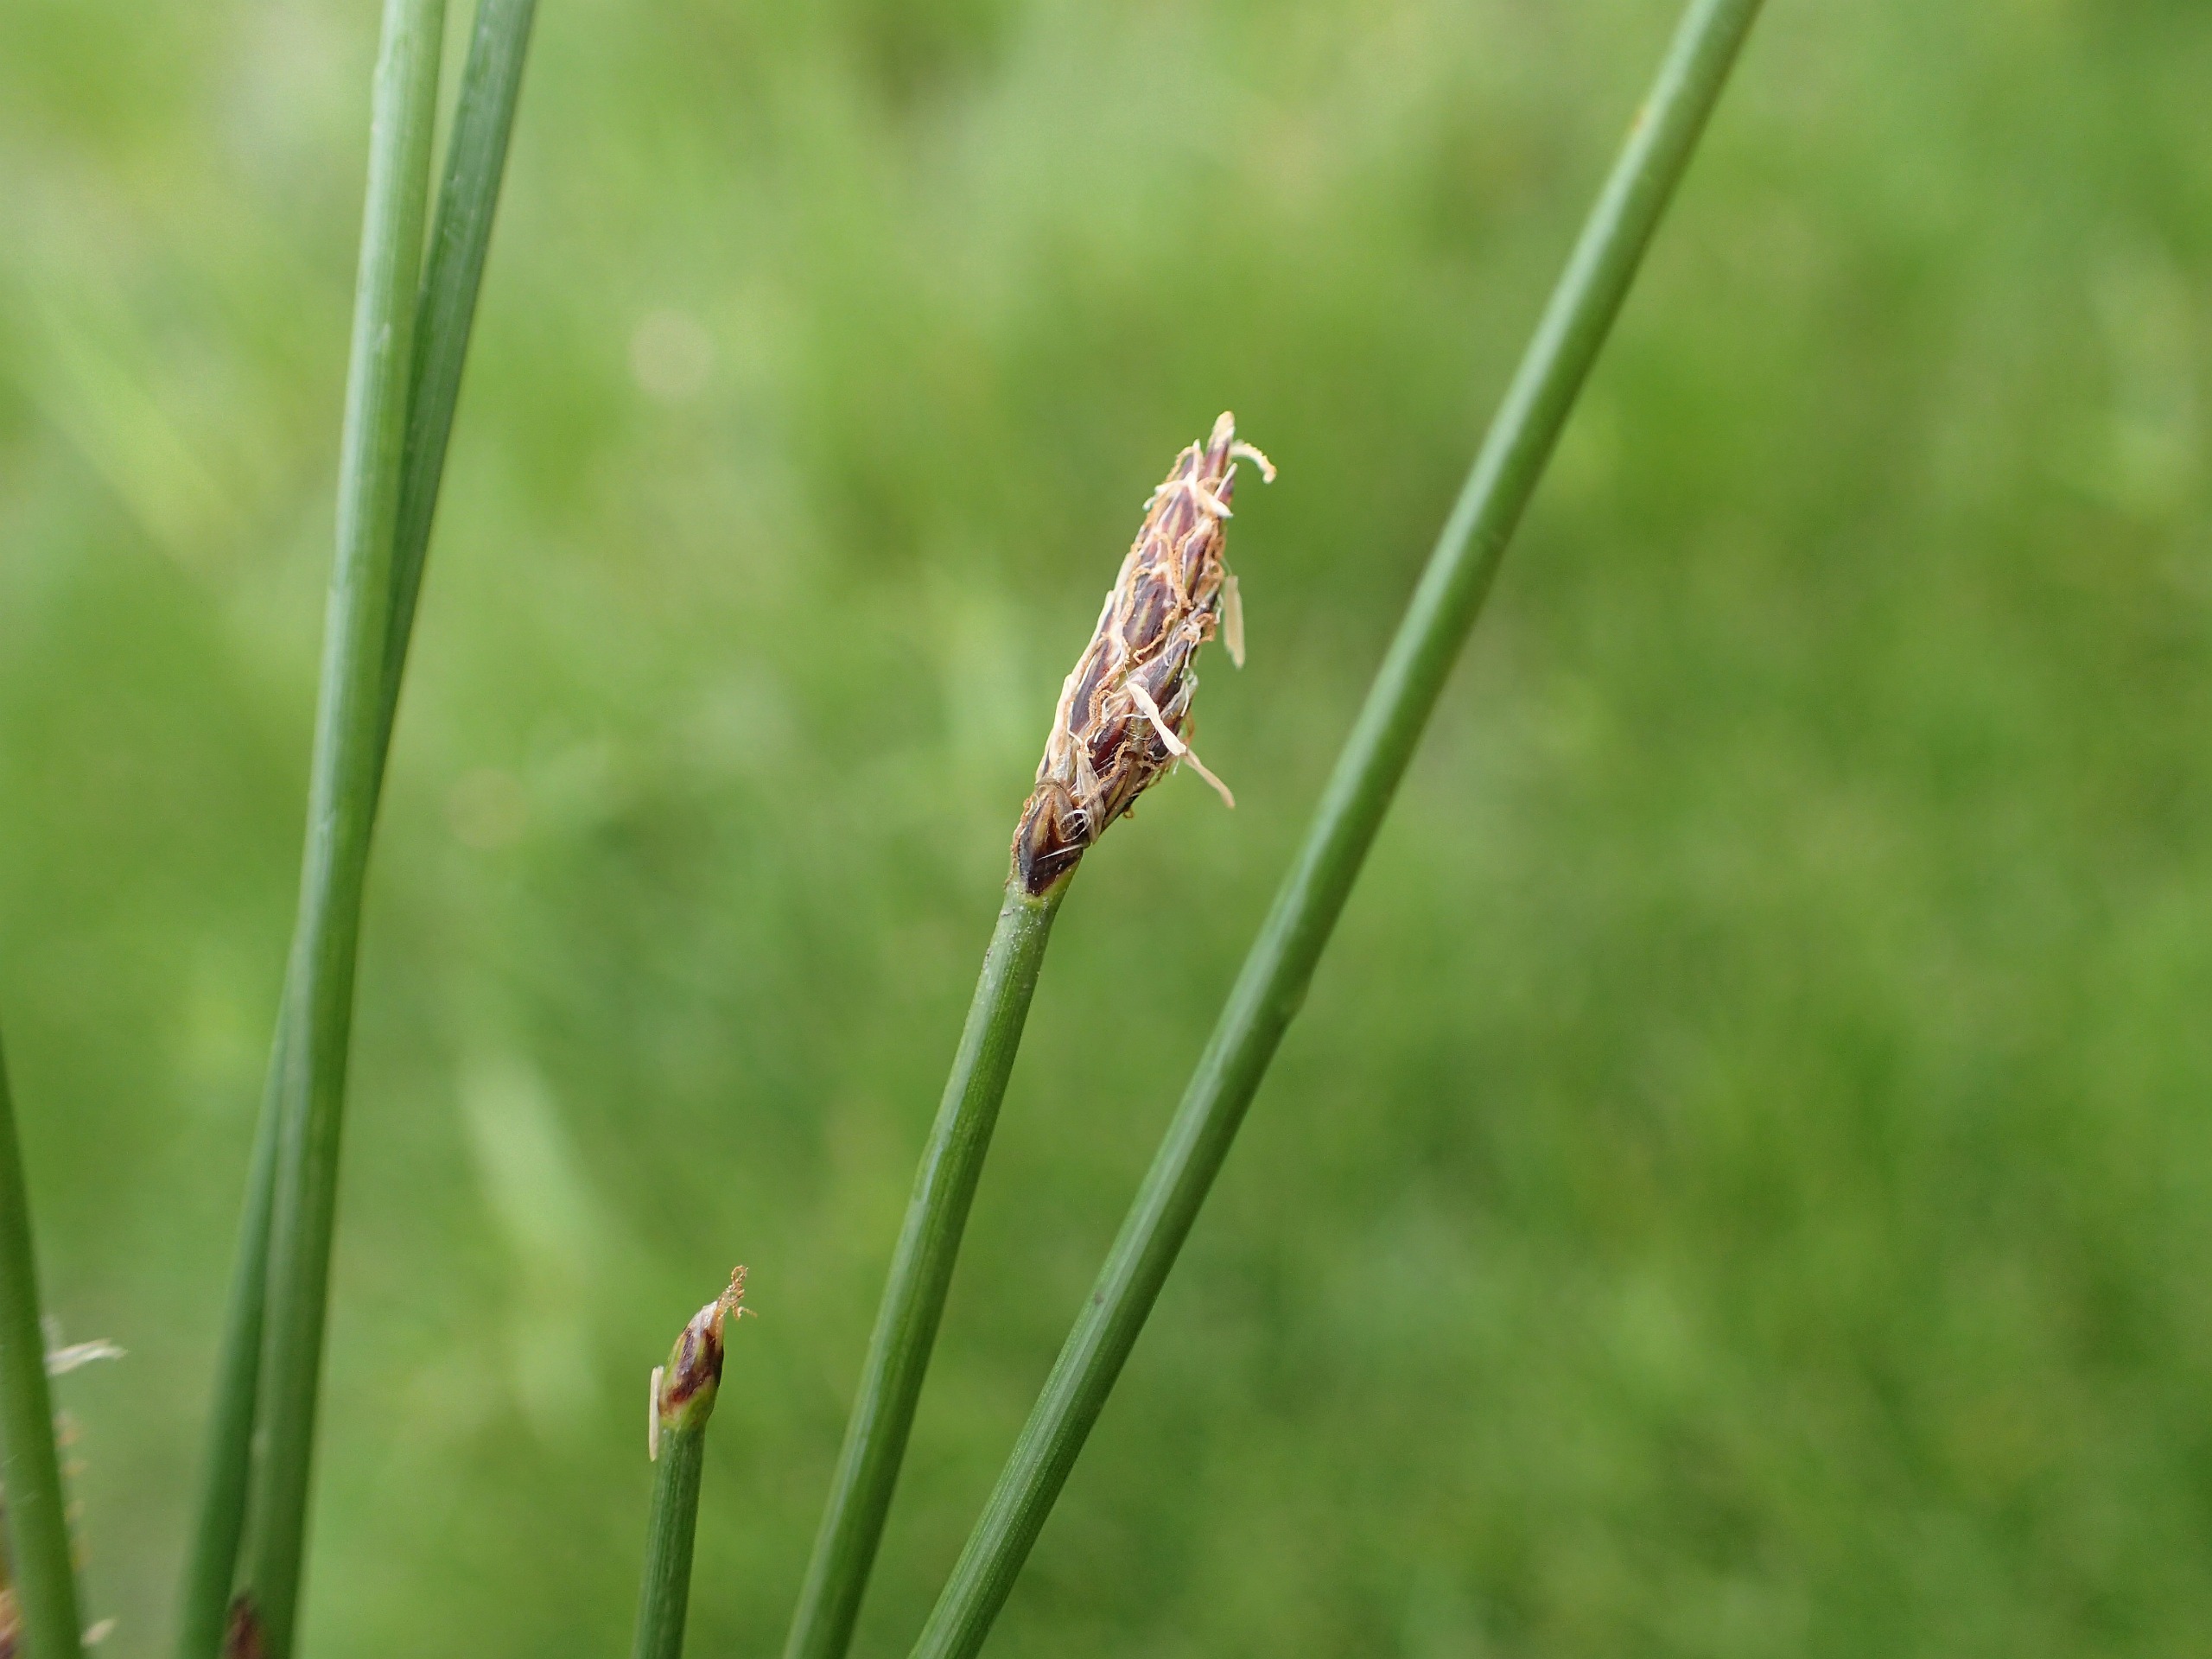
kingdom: Plantae
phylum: Tracheophyta
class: Liliopsida
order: Poales
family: Cyperaceae
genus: Eleocharis
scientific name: Eleocharis palustris
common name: Almindelig sumpstrå
